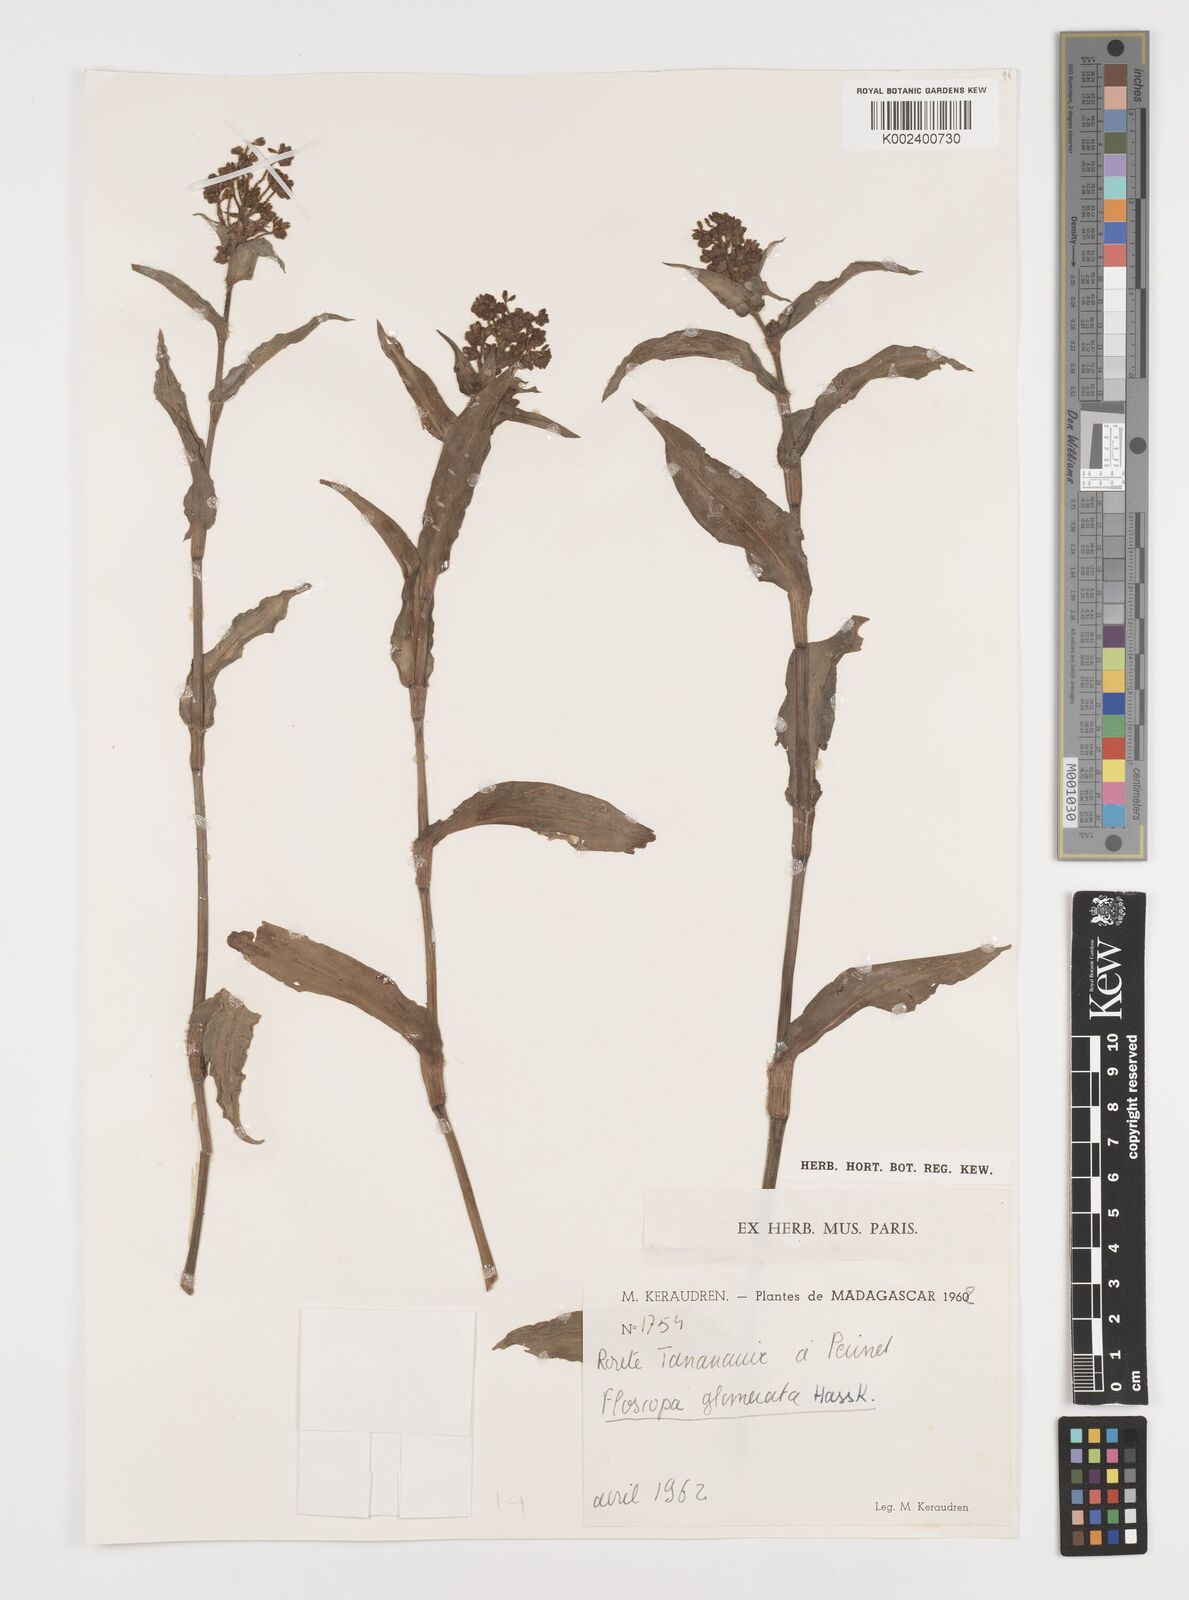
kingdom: Plantae
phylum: Tracheophyta
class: Liliopsida
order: Commelinales
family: Commelinaceae
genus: Floscopa
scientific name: Floscopa glomerata
